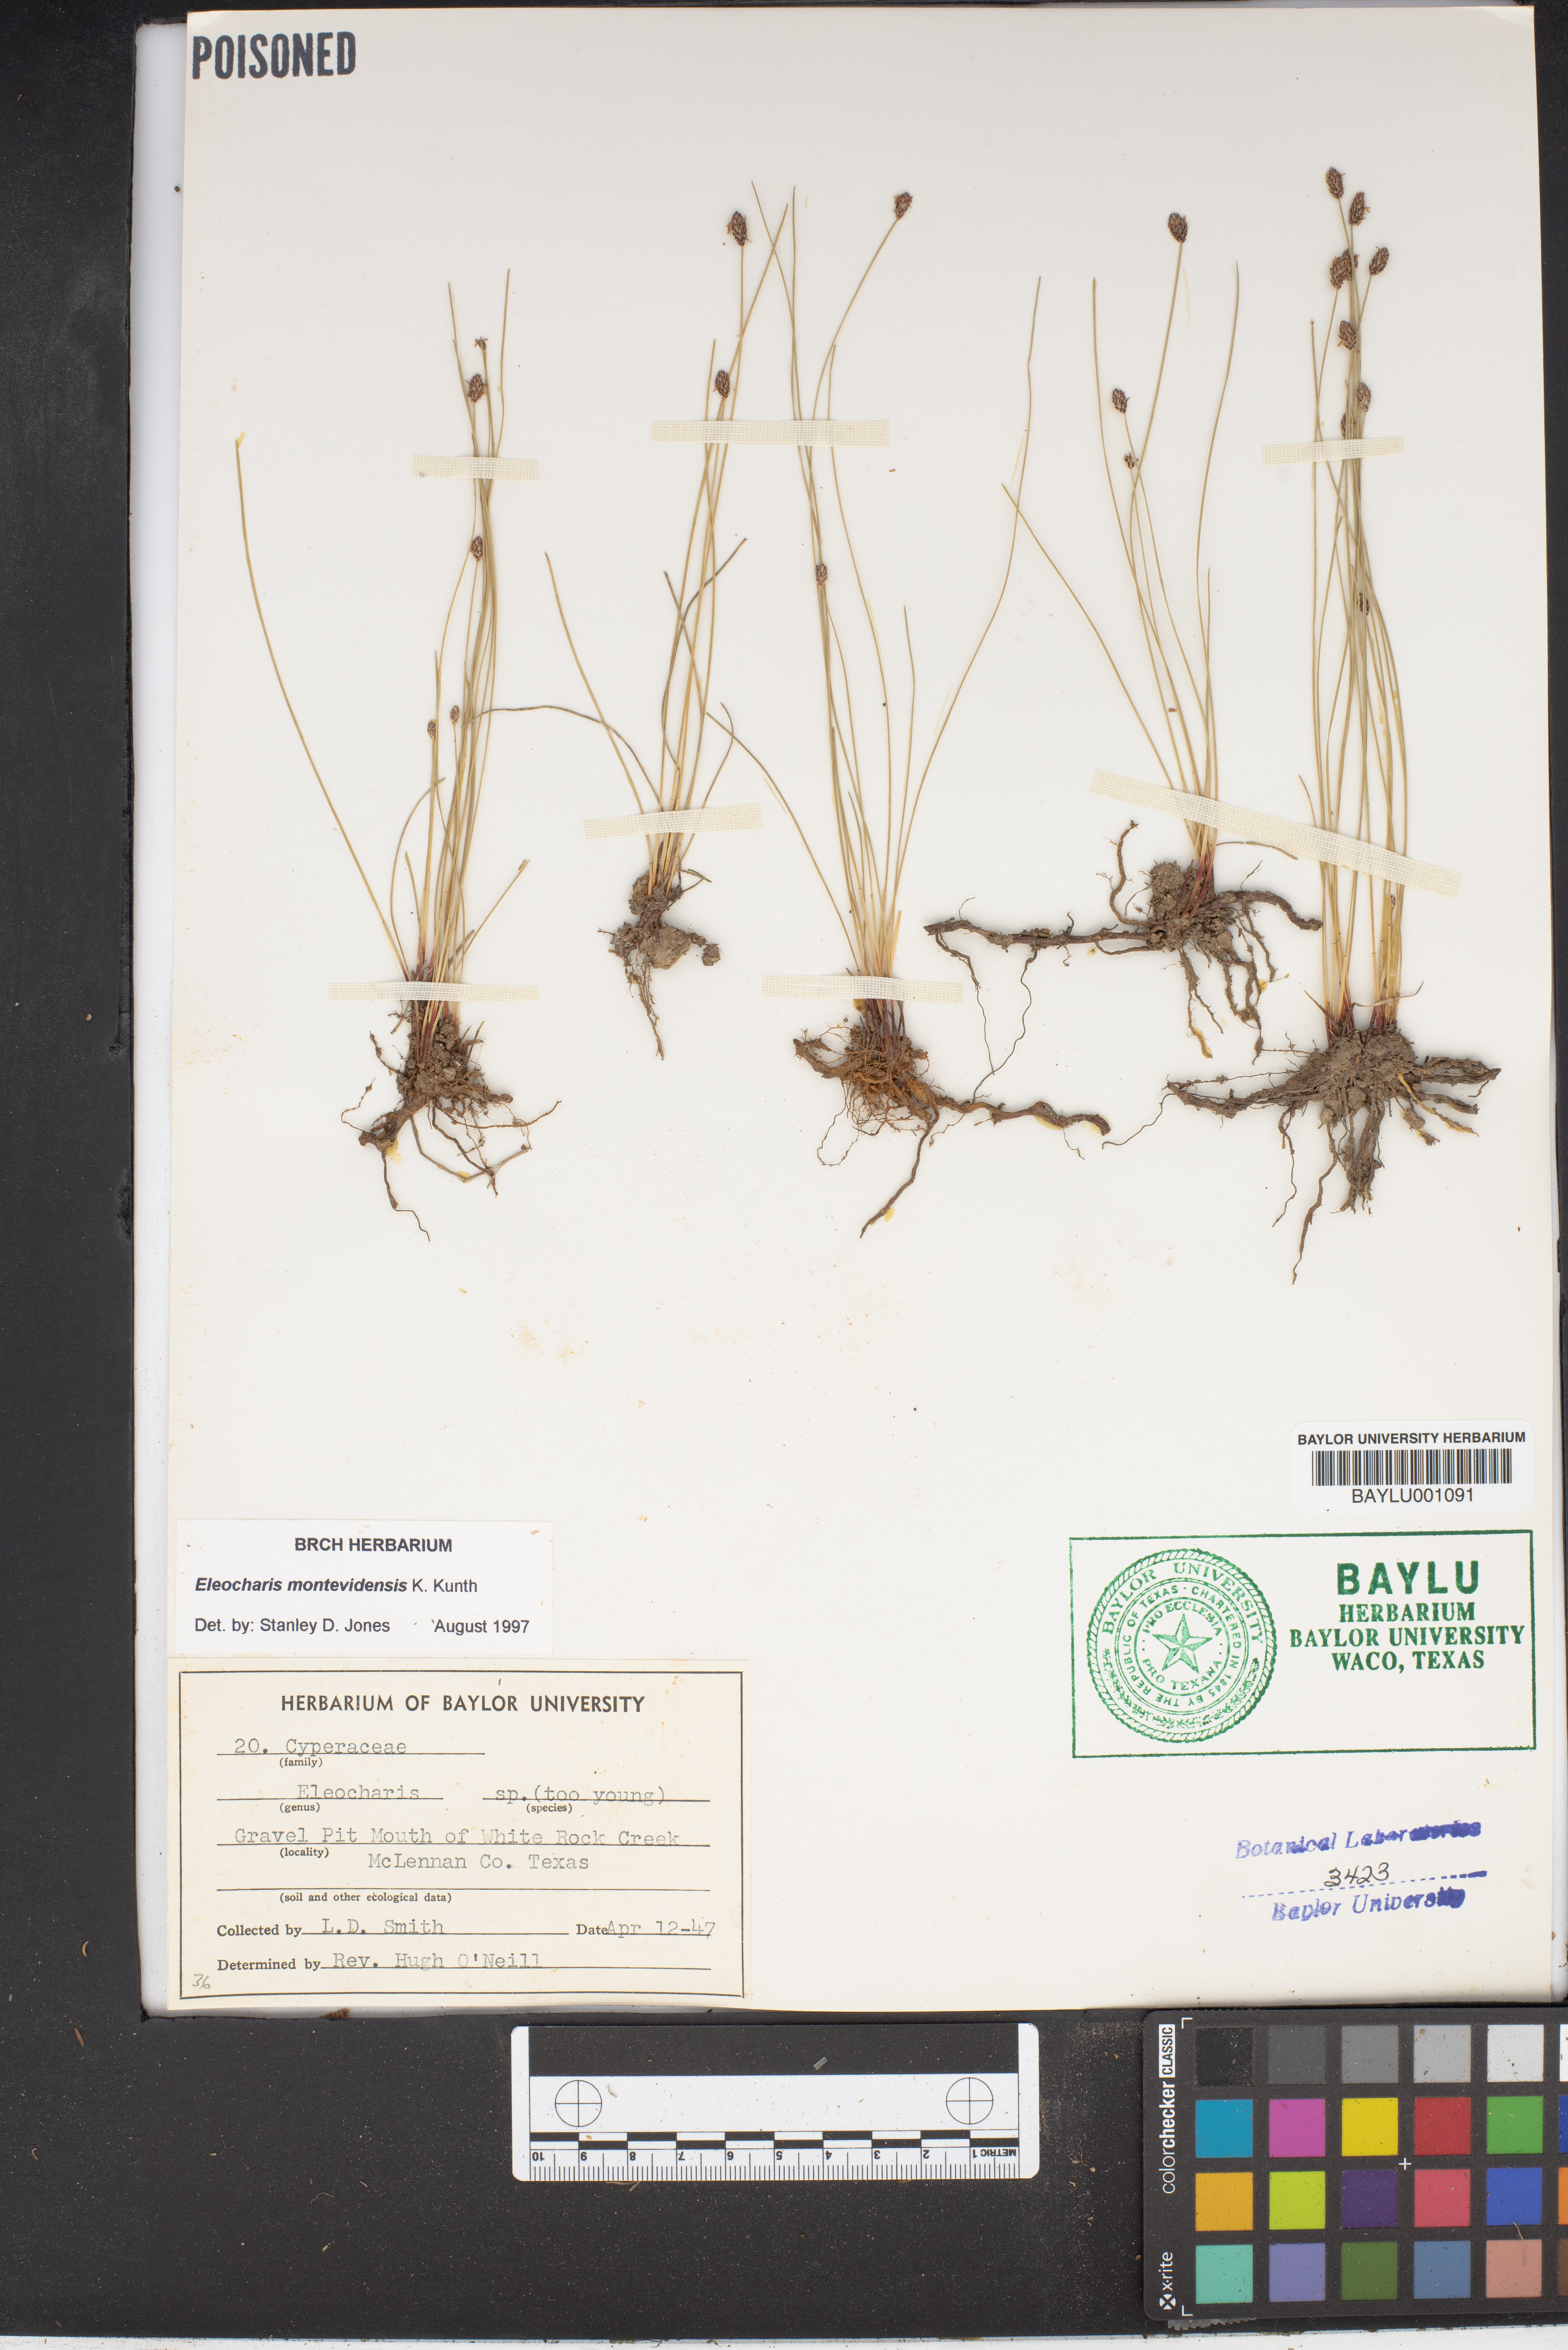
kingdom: Plantae
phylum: Tracheophyta
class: Liliopsida
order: Poales
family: Cyperaceae
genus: Eleocharis
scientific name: Eleocharis
